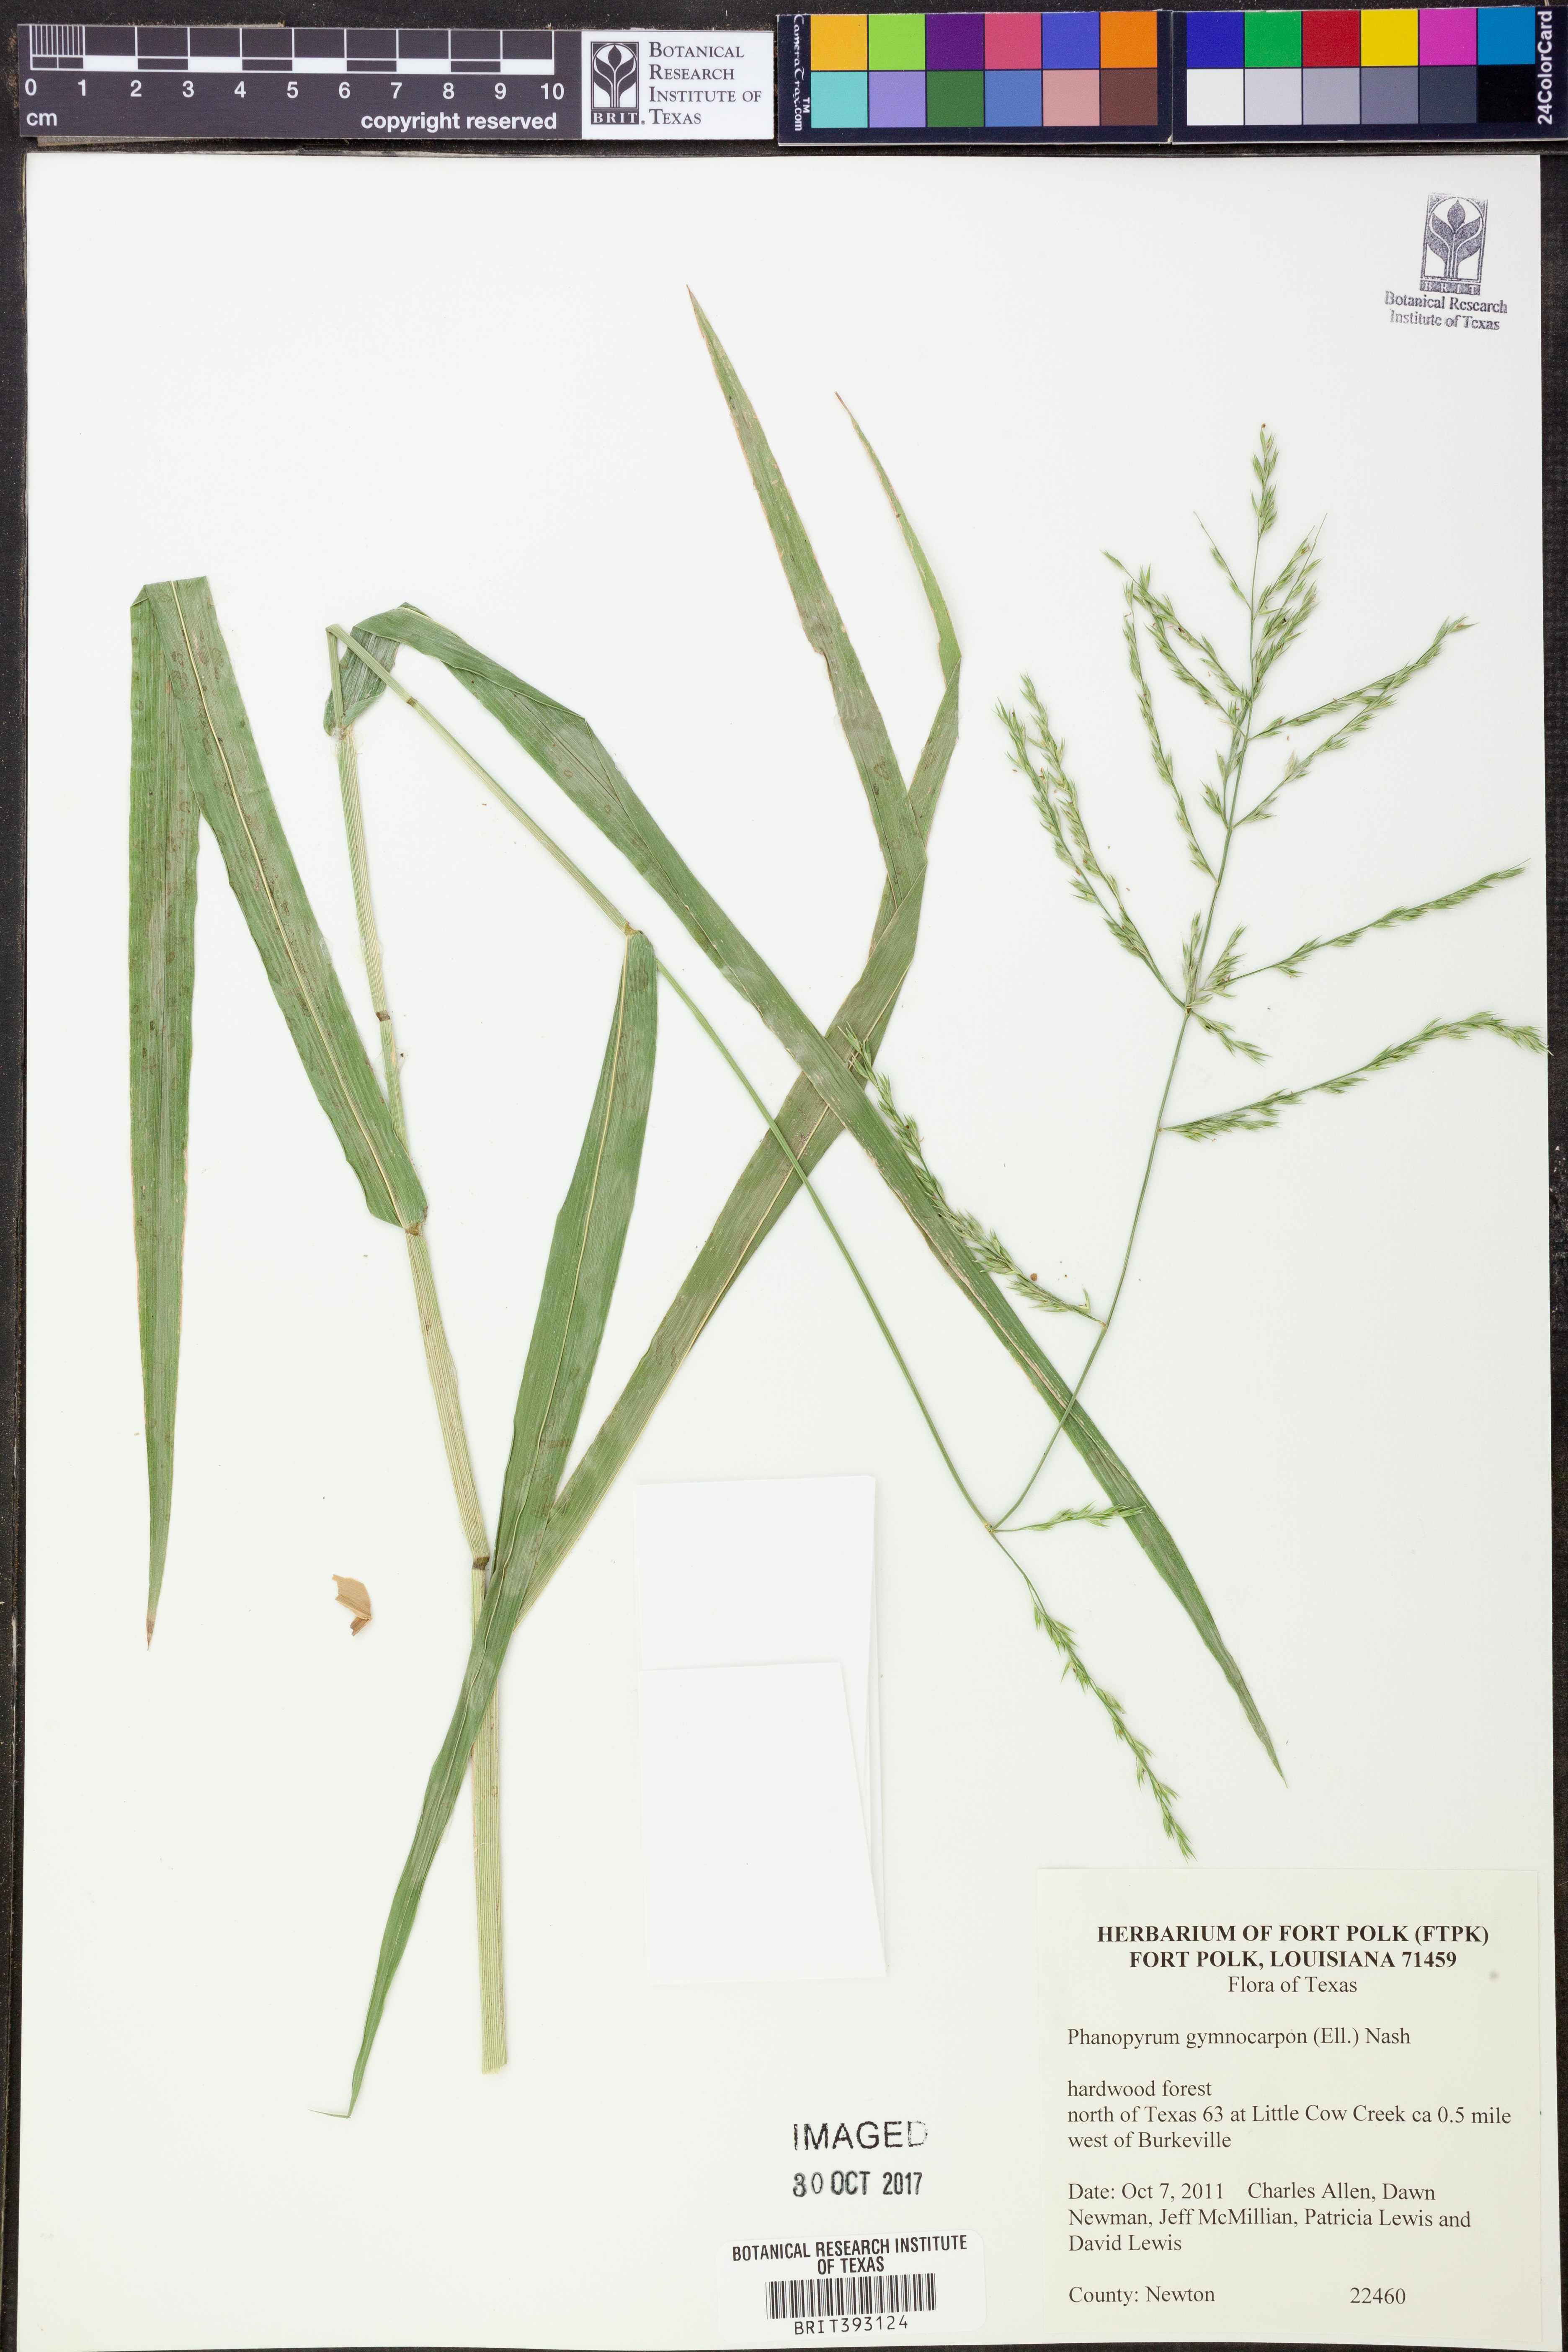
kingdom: Plantae
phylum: Tracheophyta
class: Liliopsida
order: Poales
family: Poaceae
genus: Panicum
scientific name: Panicum gymnocarpon
